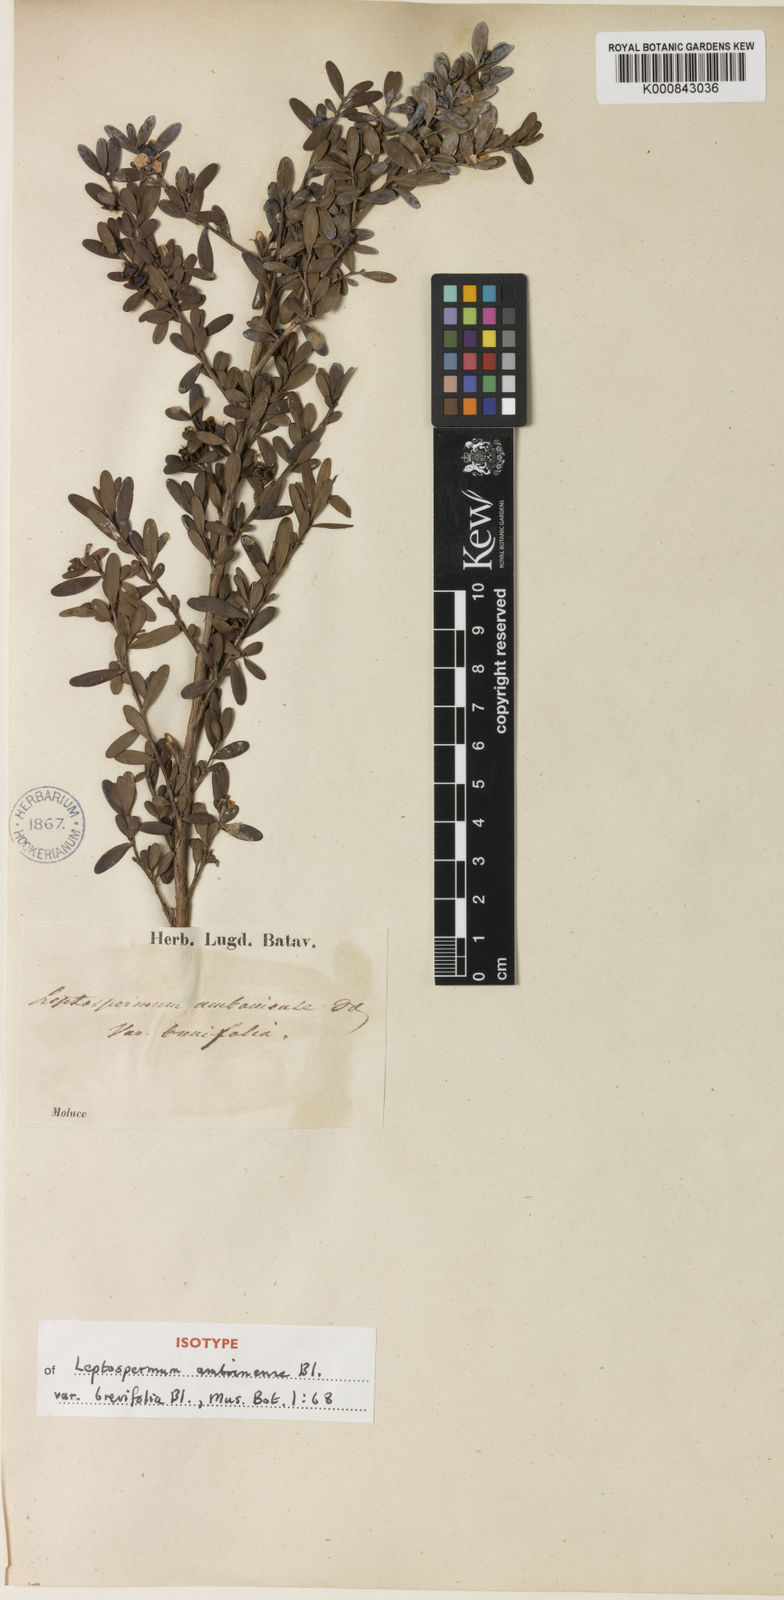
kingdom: Plantae
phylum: Tracheophyta
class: Magnoliopsida
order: Myrtales
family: Myrtaceae
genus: Leptospermum
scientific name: Leptospermum javanicum
